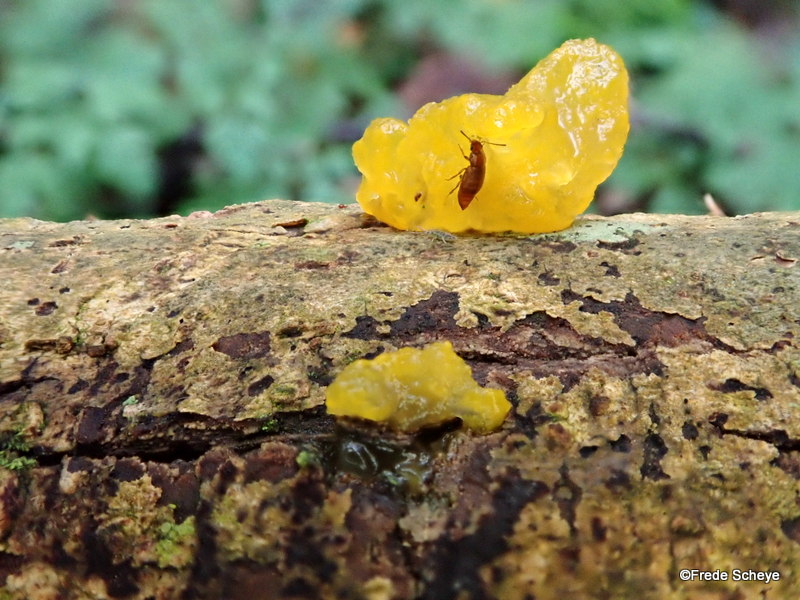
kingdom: Fungi
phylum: Basidiomycota
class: Tremellomycetes
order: Tremellales
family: Tremellaceae
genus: Tremella
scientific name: Tremella mesenterica
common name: gul bævresvamp
